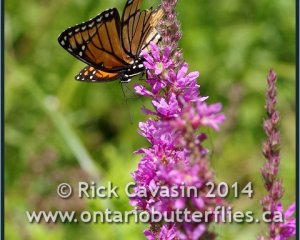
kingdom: Animalia
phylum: Arthropoda
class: Insecta
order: Lepidoptera
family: Nymphalidae
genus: Limenitis
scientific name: Limenitis archippus
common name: Viceroy
